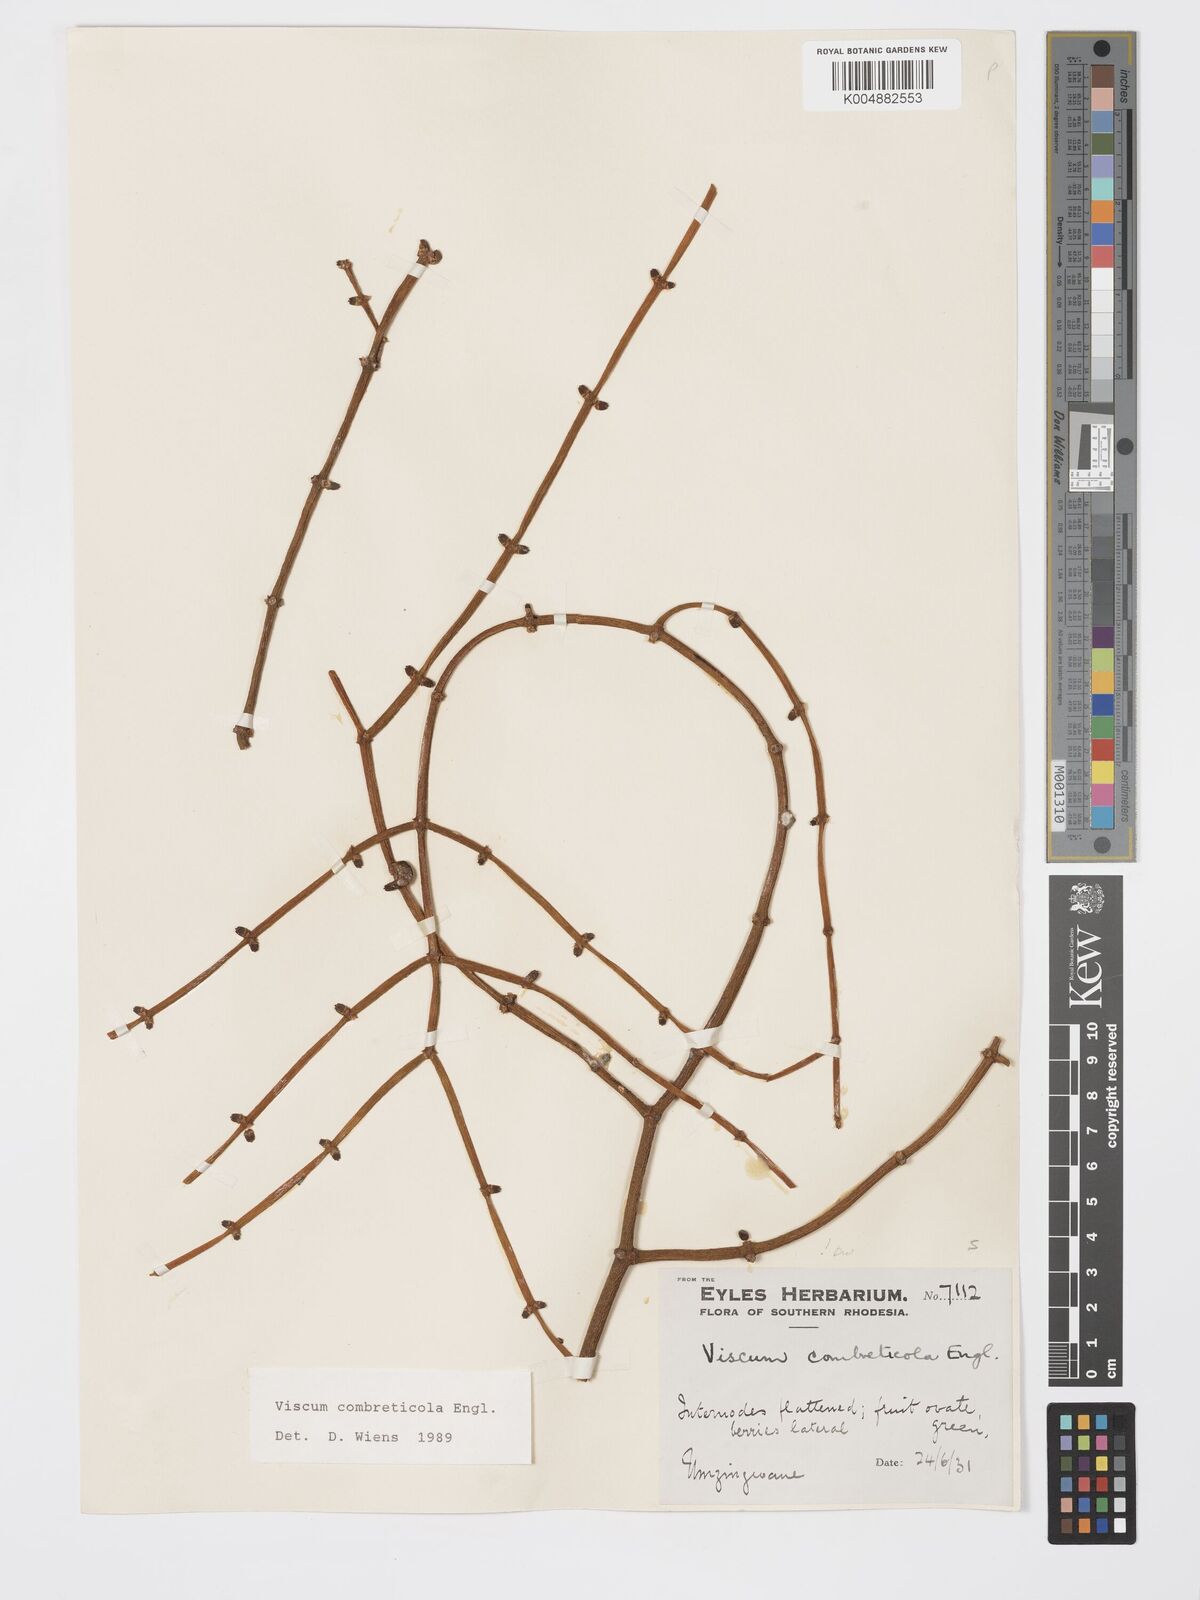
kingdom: Plantae
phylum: Tracheophyta
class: Magnoliopsida
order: Santalales
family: Viscaceae
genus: Viscum
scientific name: Viscum combreticola
